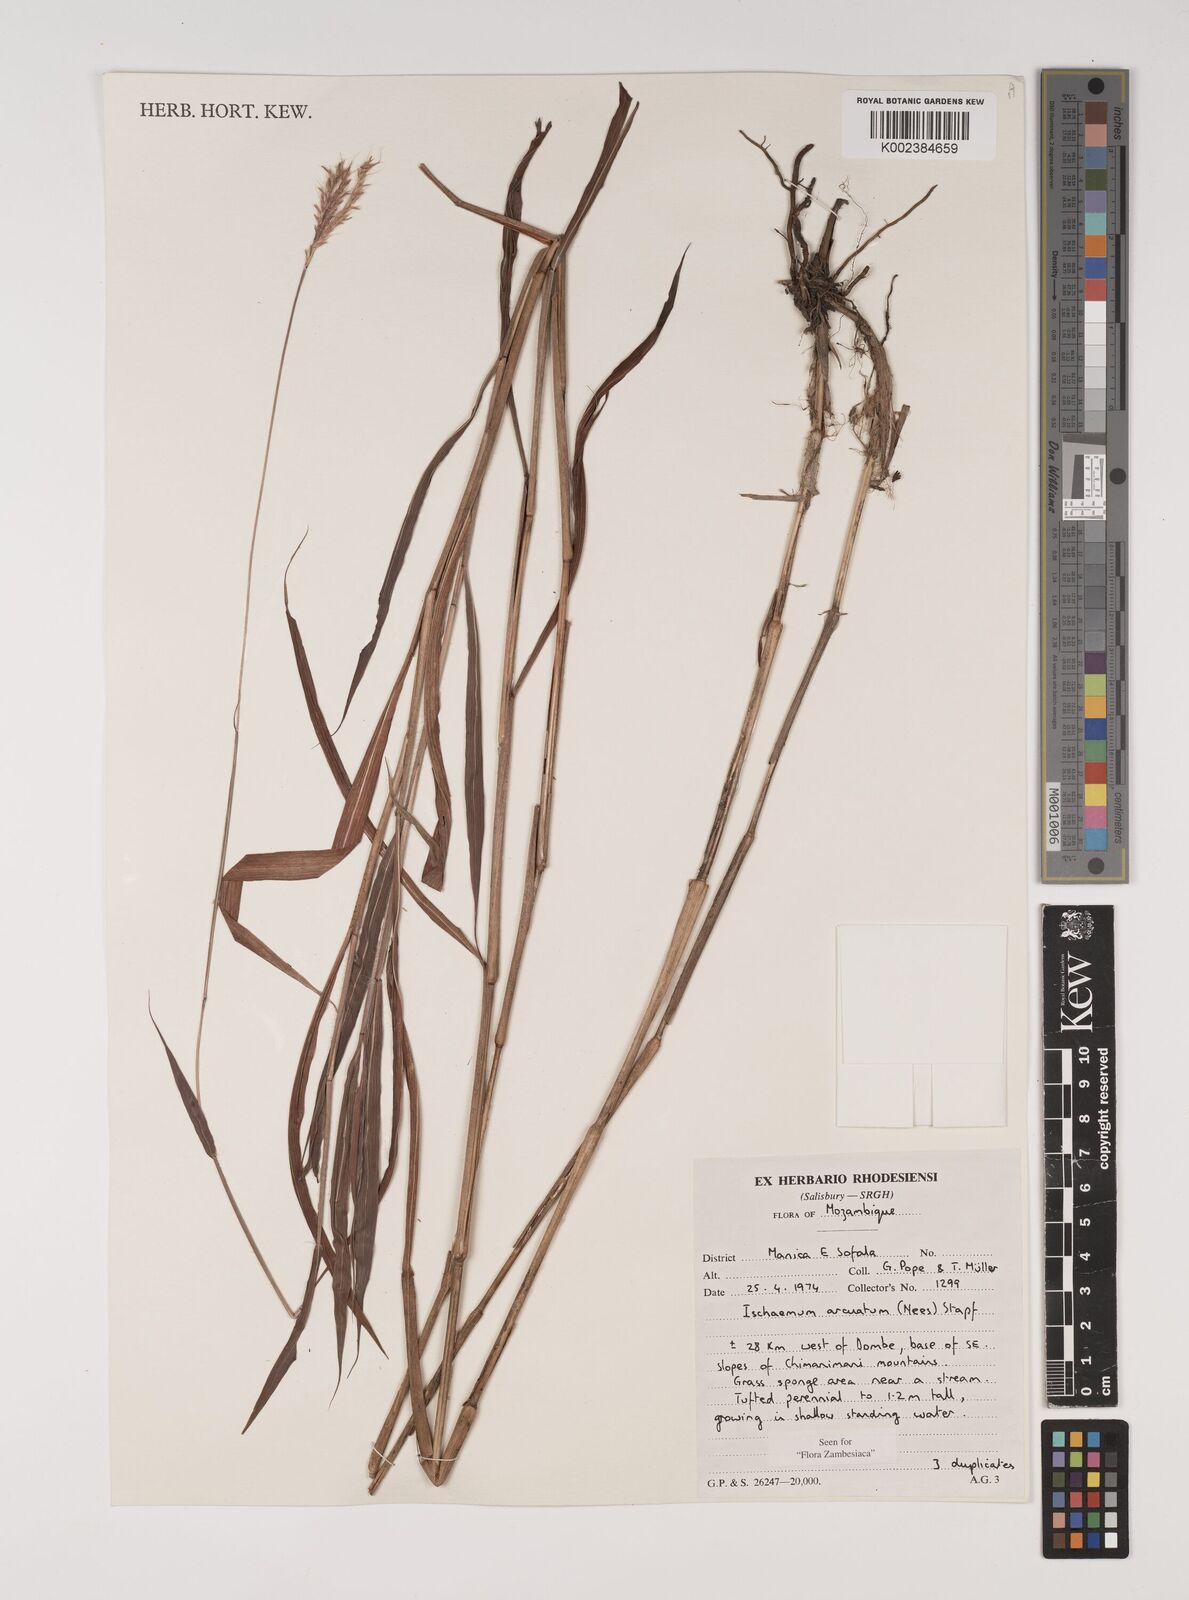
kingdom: Plantae
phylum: Tracheophyta
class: Liliopsida
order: Poales
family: Poaceae
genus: Ischaemum
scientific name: Ischaemum
